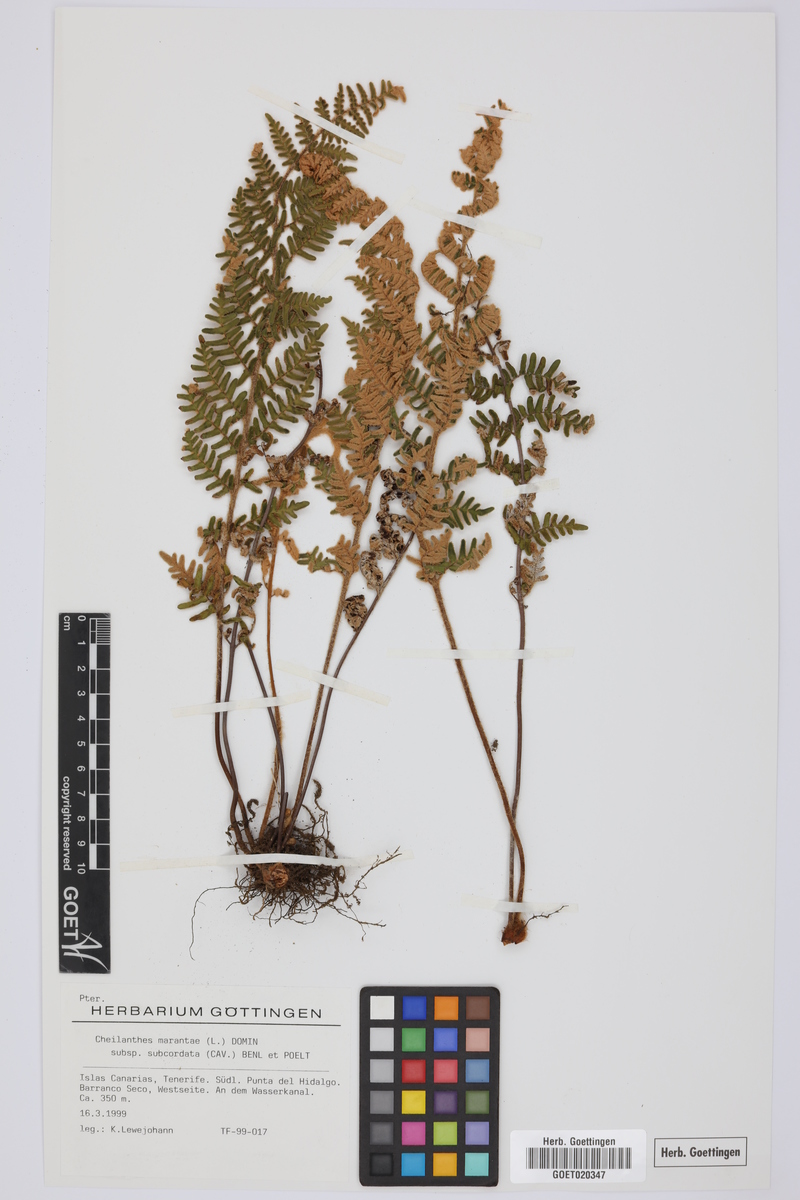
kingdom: Plantae
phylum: Tracheophyta
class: Polypodiopsida
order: Polypodiales
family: Pteridaceae
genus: Paragymnopteris
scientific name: Paragymnopteris marantae
